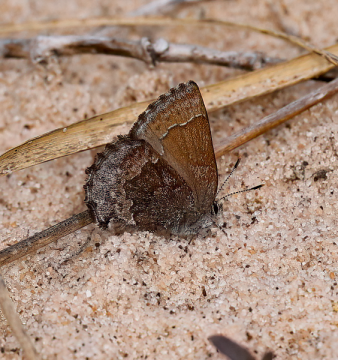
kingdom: Animalia
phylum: Arthropoda
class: Insecta
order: Lepidoptera
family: Lycaenidae
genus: Callophrys
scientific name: Callophrys polios
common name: Hoary Elfin
